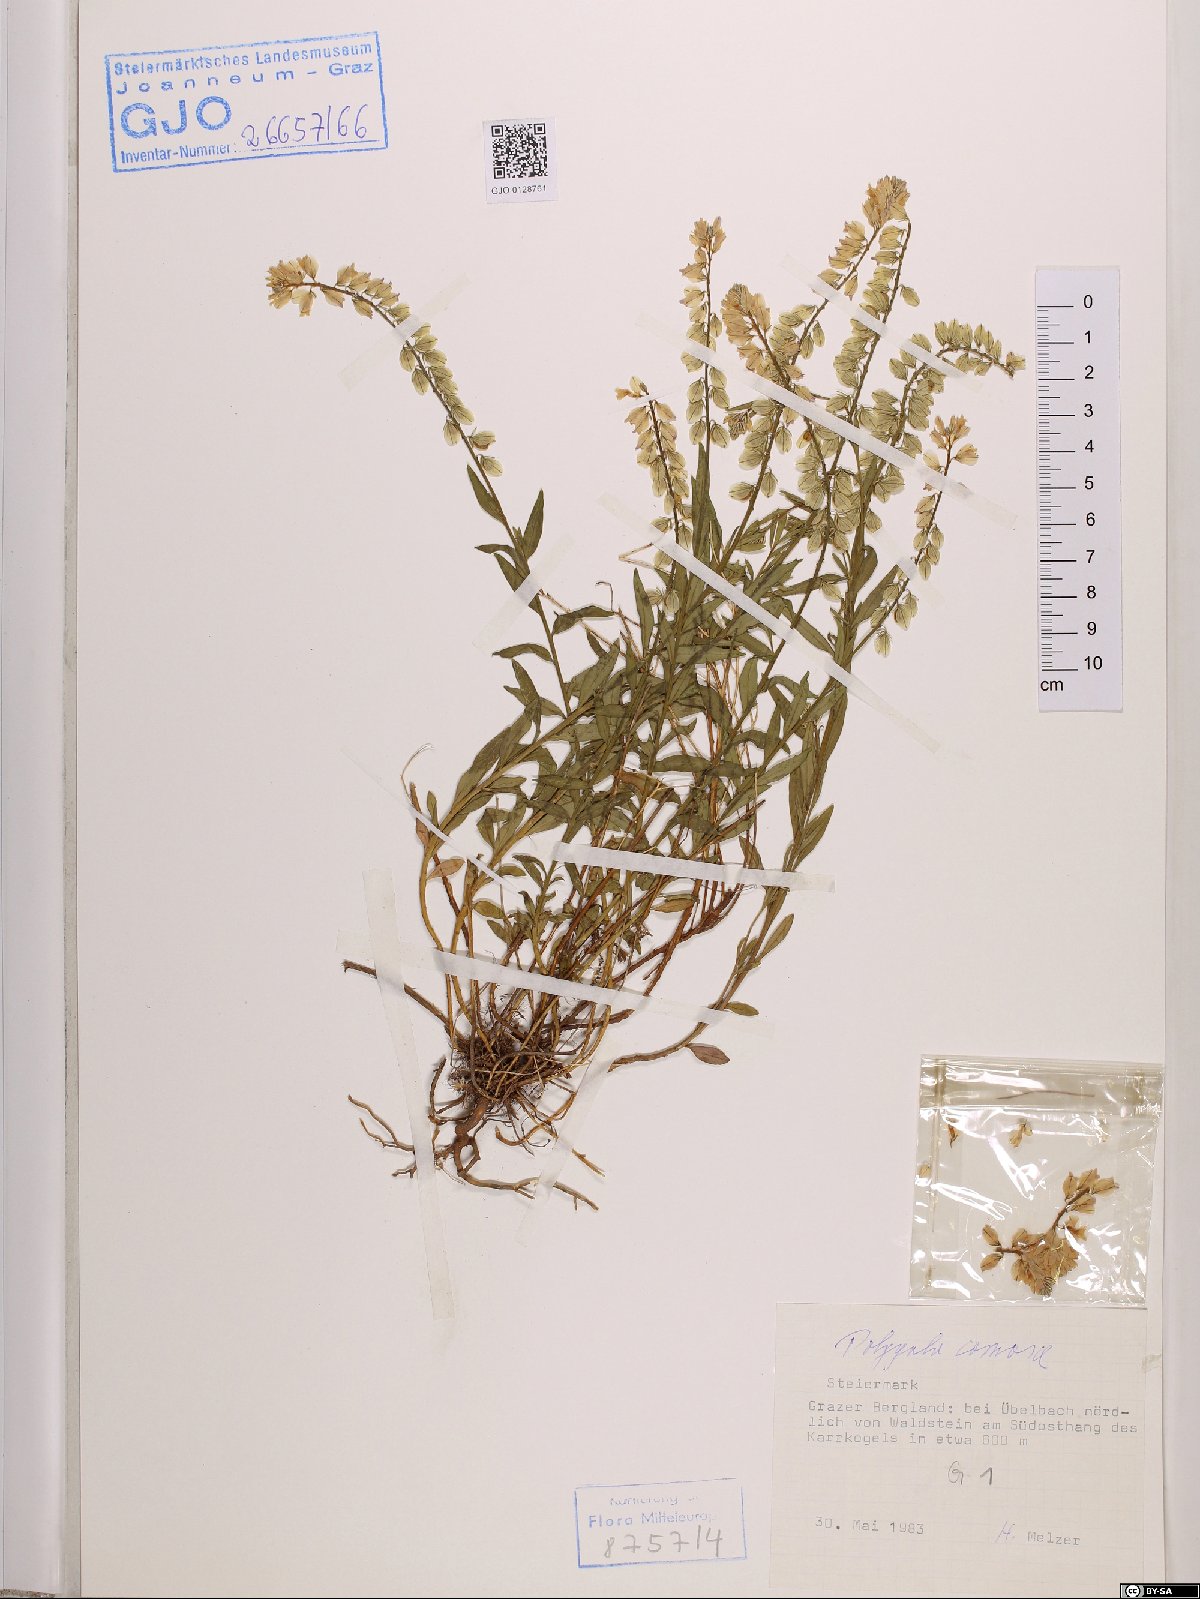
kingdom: Plantae
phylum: Tracheophyta
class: Magnoliopsida
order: Fabales
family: Polygalaceae
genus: Polygala
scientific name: Polygala comosa
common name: Tufted milkwort
